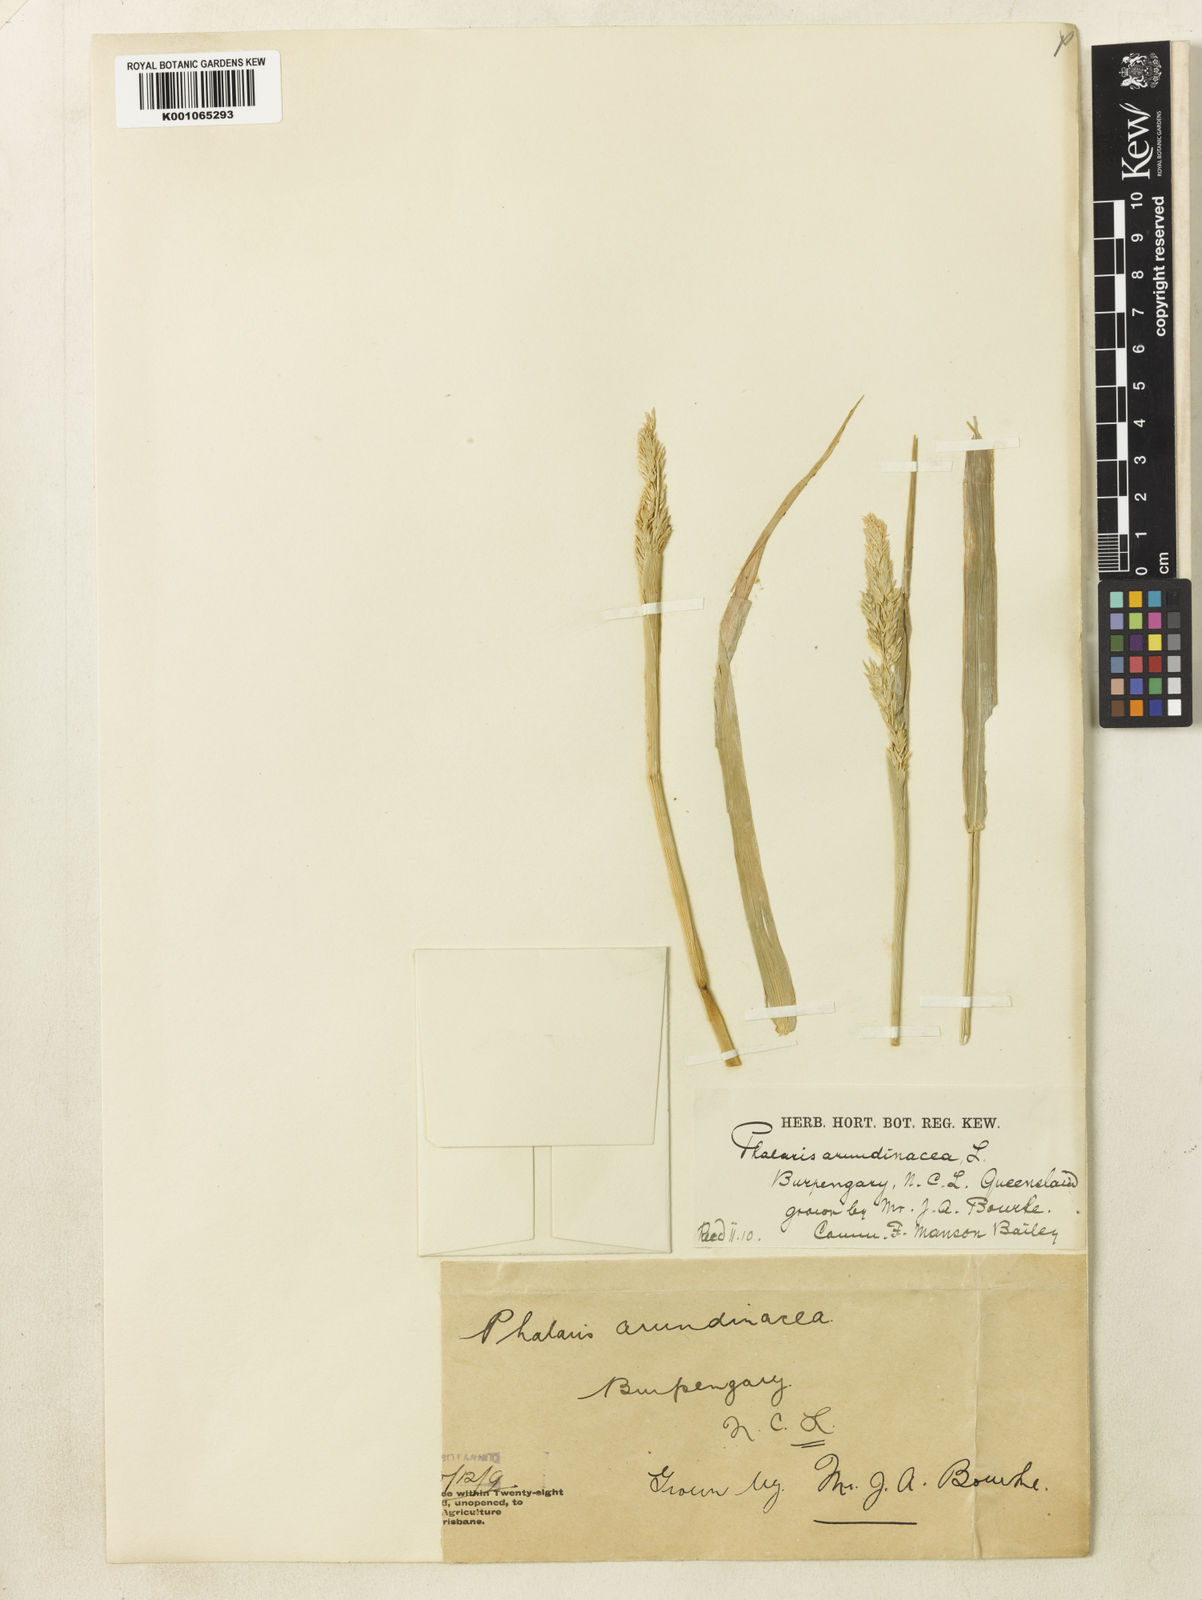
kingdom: Plantae
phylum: Tracheophyta
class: Liliopsida
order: Poales
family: Poaceae
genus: Phalaris
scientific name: Phalaris arundinacea
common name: Reed canary-grass
